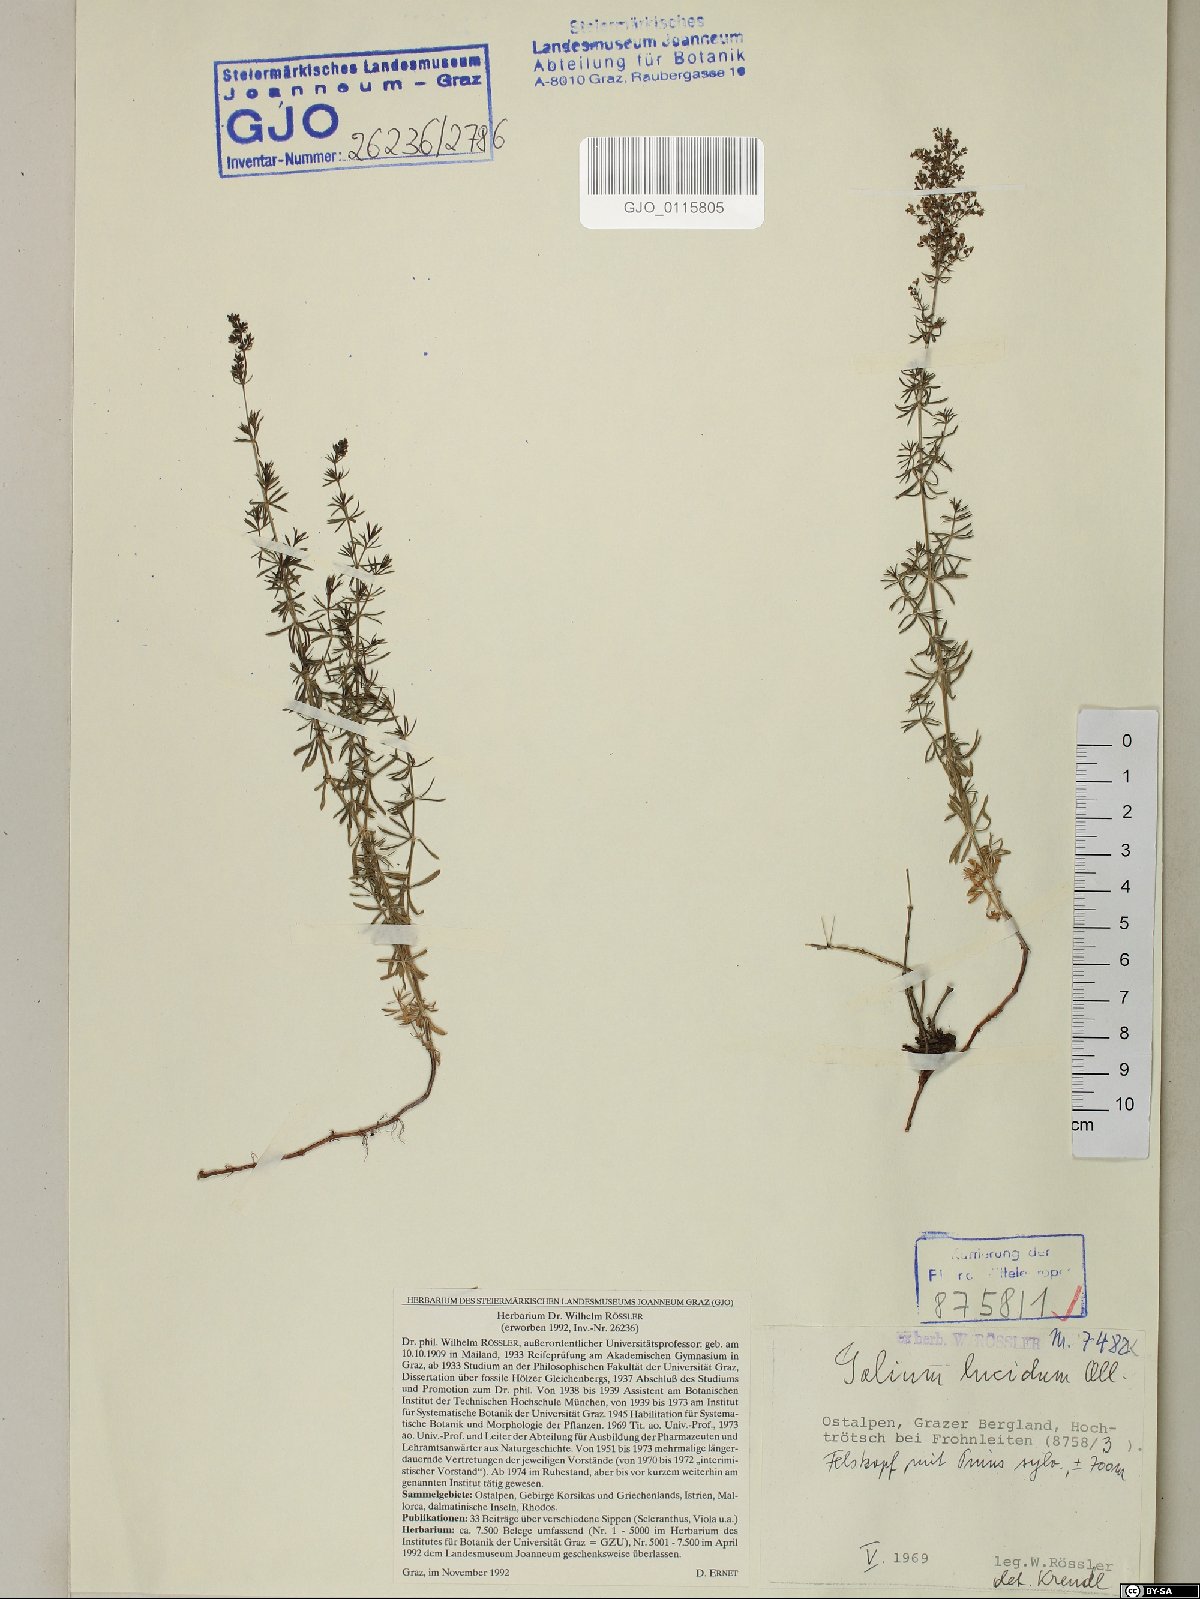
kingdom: Plantae
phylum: Tracheophyta
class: Magnoliopsida
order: Gentianales
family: Rubiaceae
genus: Galium
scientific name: Galium lucidum
